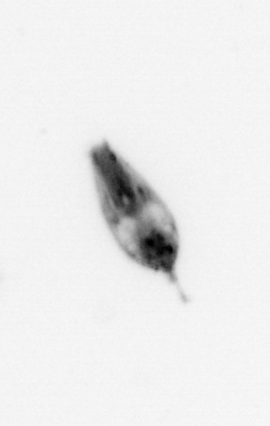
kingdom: Animalia
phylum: Arthropoda
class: Maxillopoda
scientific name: Maxillopoda
